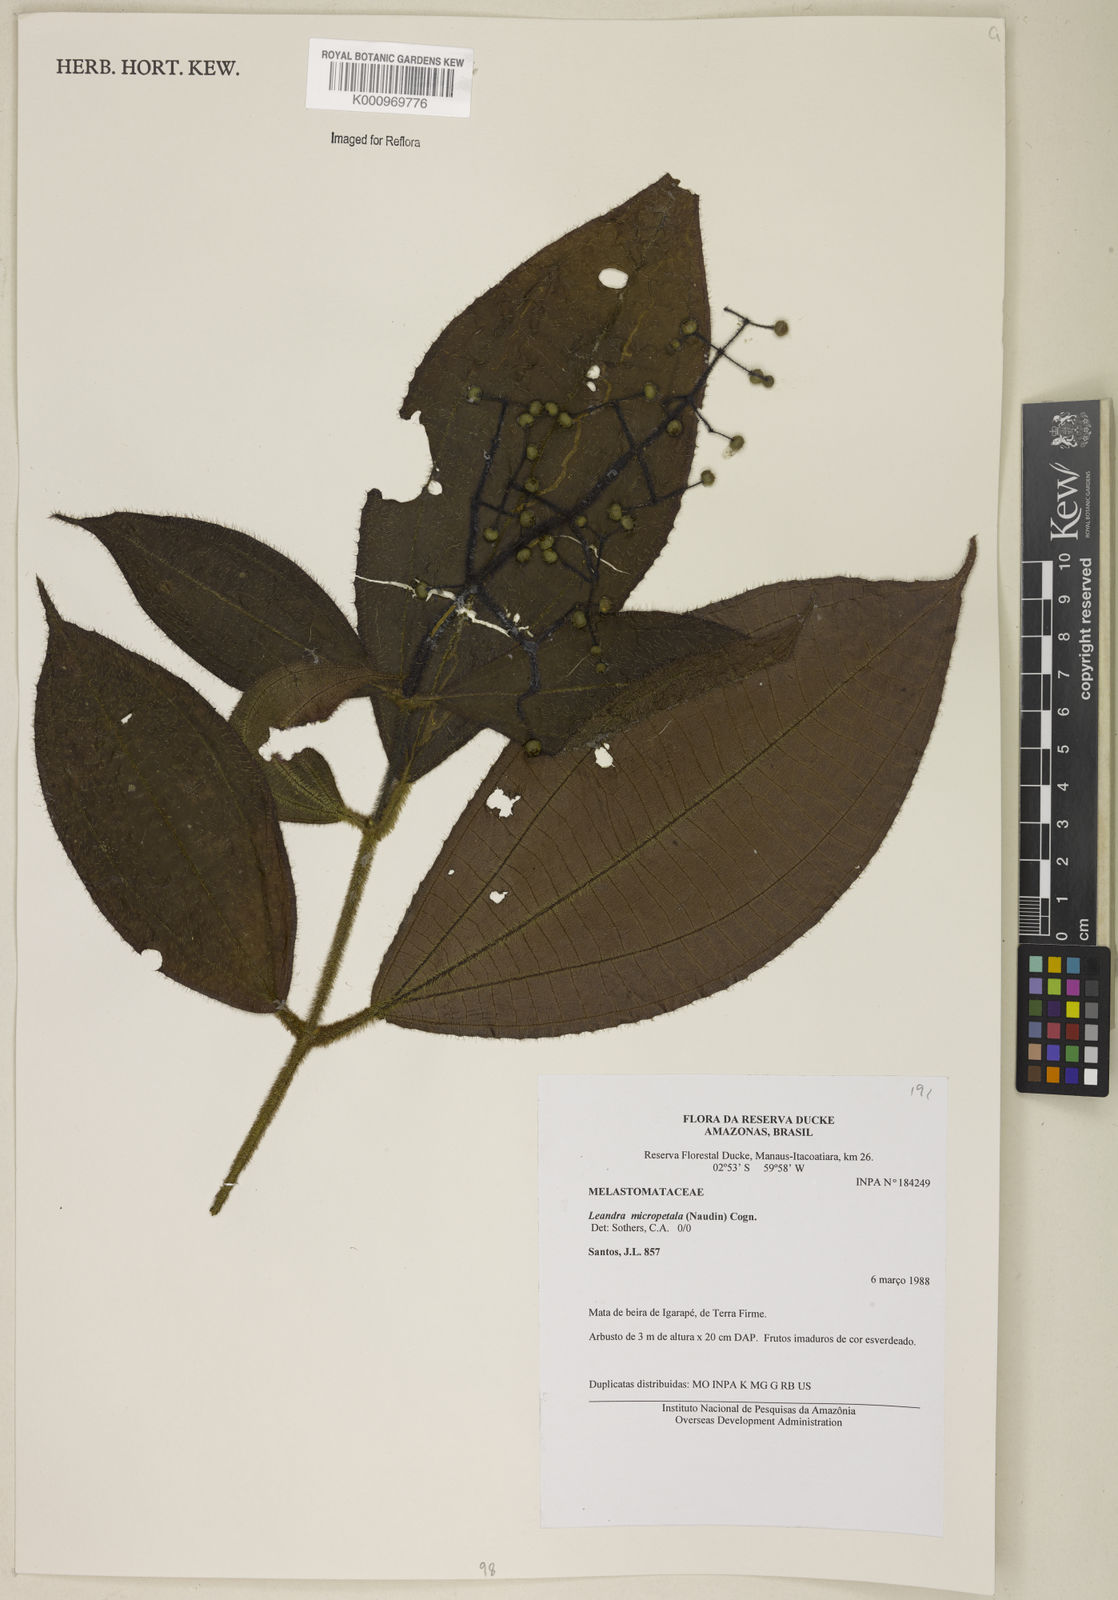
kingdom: Plantae
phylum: Tracheophyta
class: Magnoliopsida
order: Myrtales
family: Melastomataceae
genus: Miconia
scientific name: Miconia nanopetala
